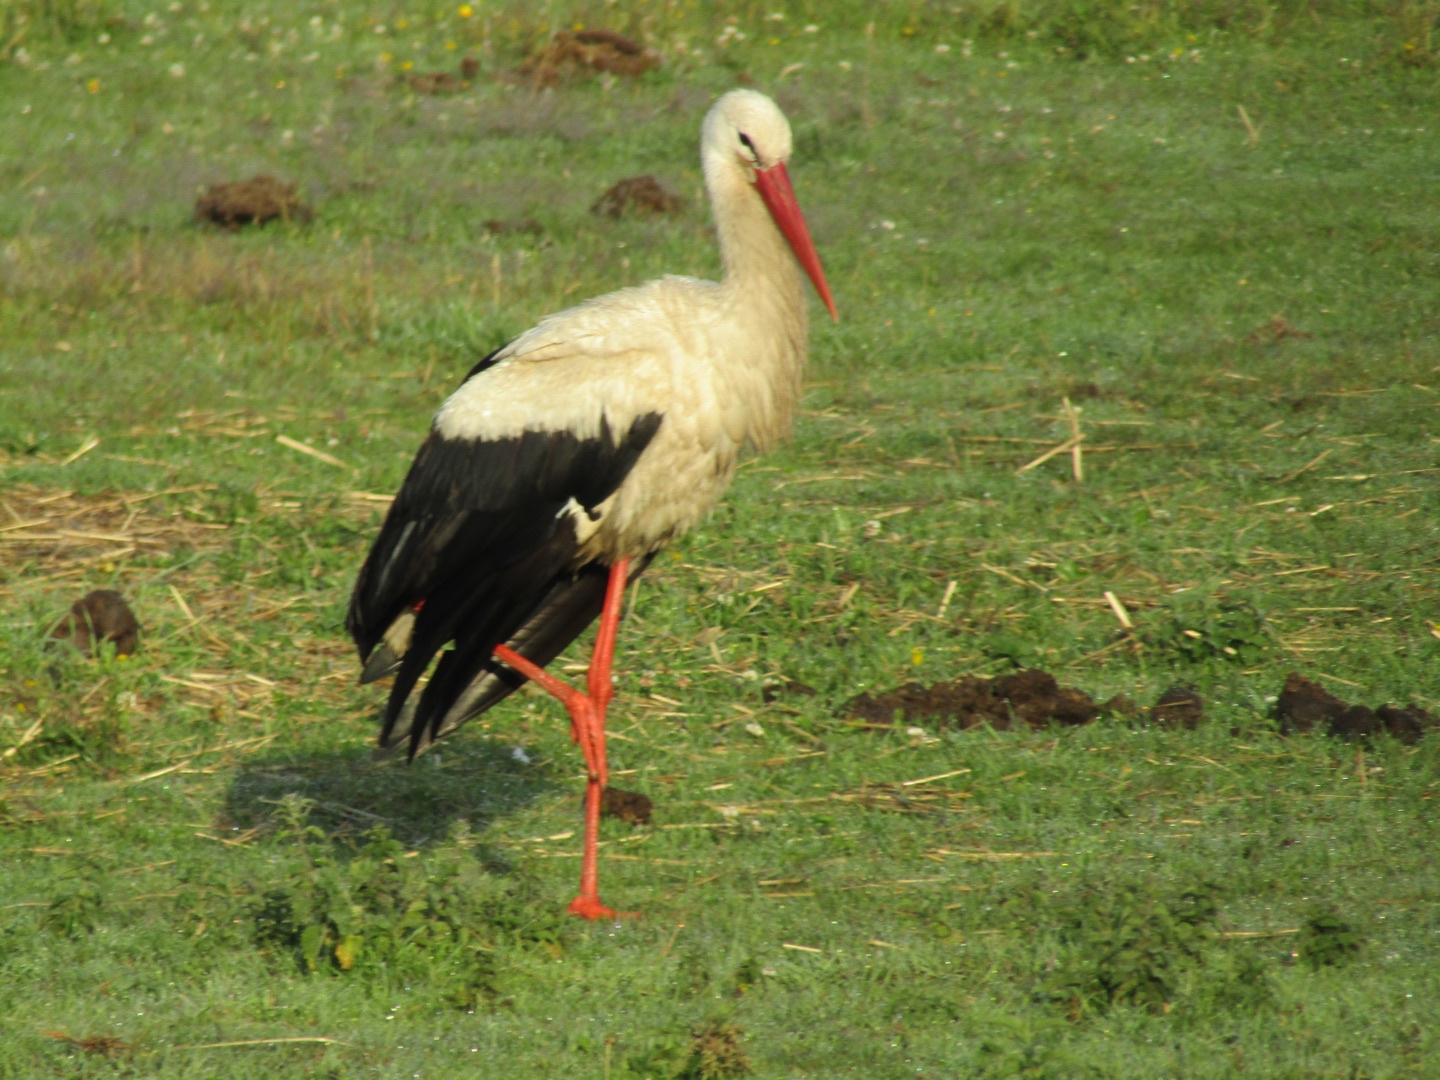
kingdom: Animalia
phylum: Chordata
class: Aves
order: Ciconiiformes
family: Ciconiidae
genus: Ciconia
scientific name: Ciconia ciconia
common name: Hvid stork
